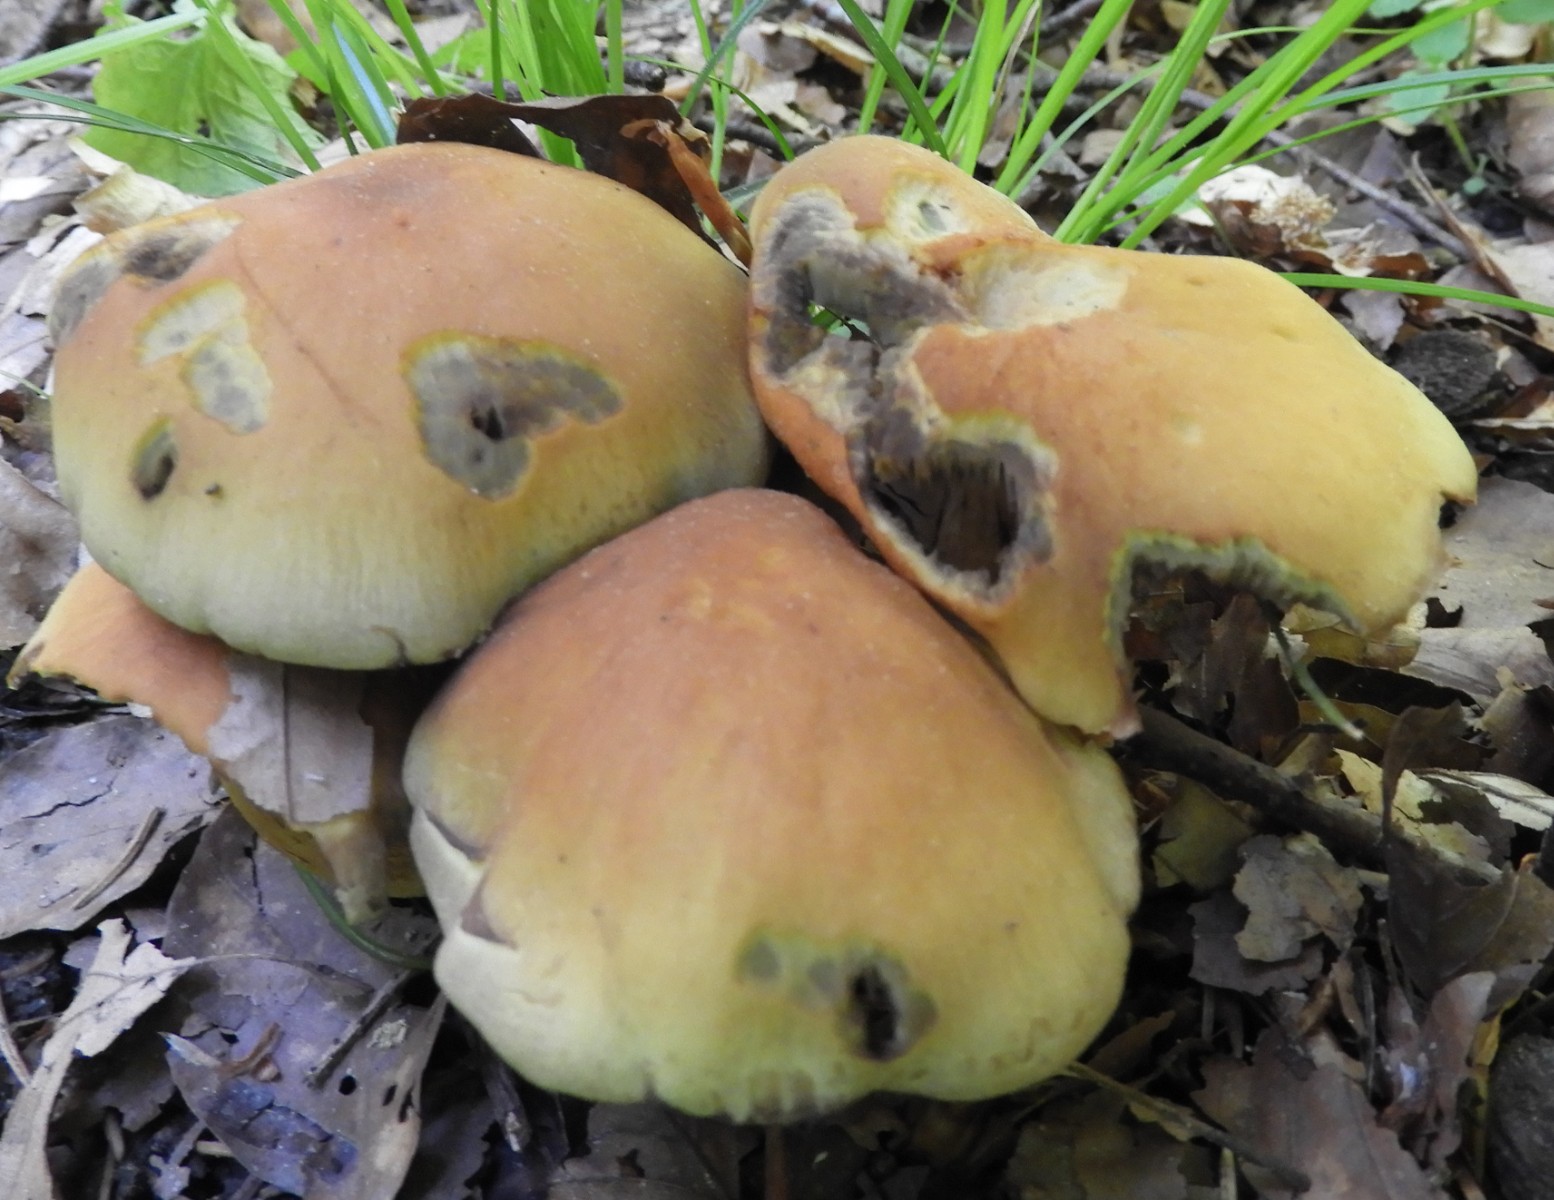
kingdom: Fungi
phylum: Basidiomycota
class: Agaricomycetes
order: Agaricales
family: Strophariaceae
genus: Hypholoma
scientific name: Hypholoma fasciculare
